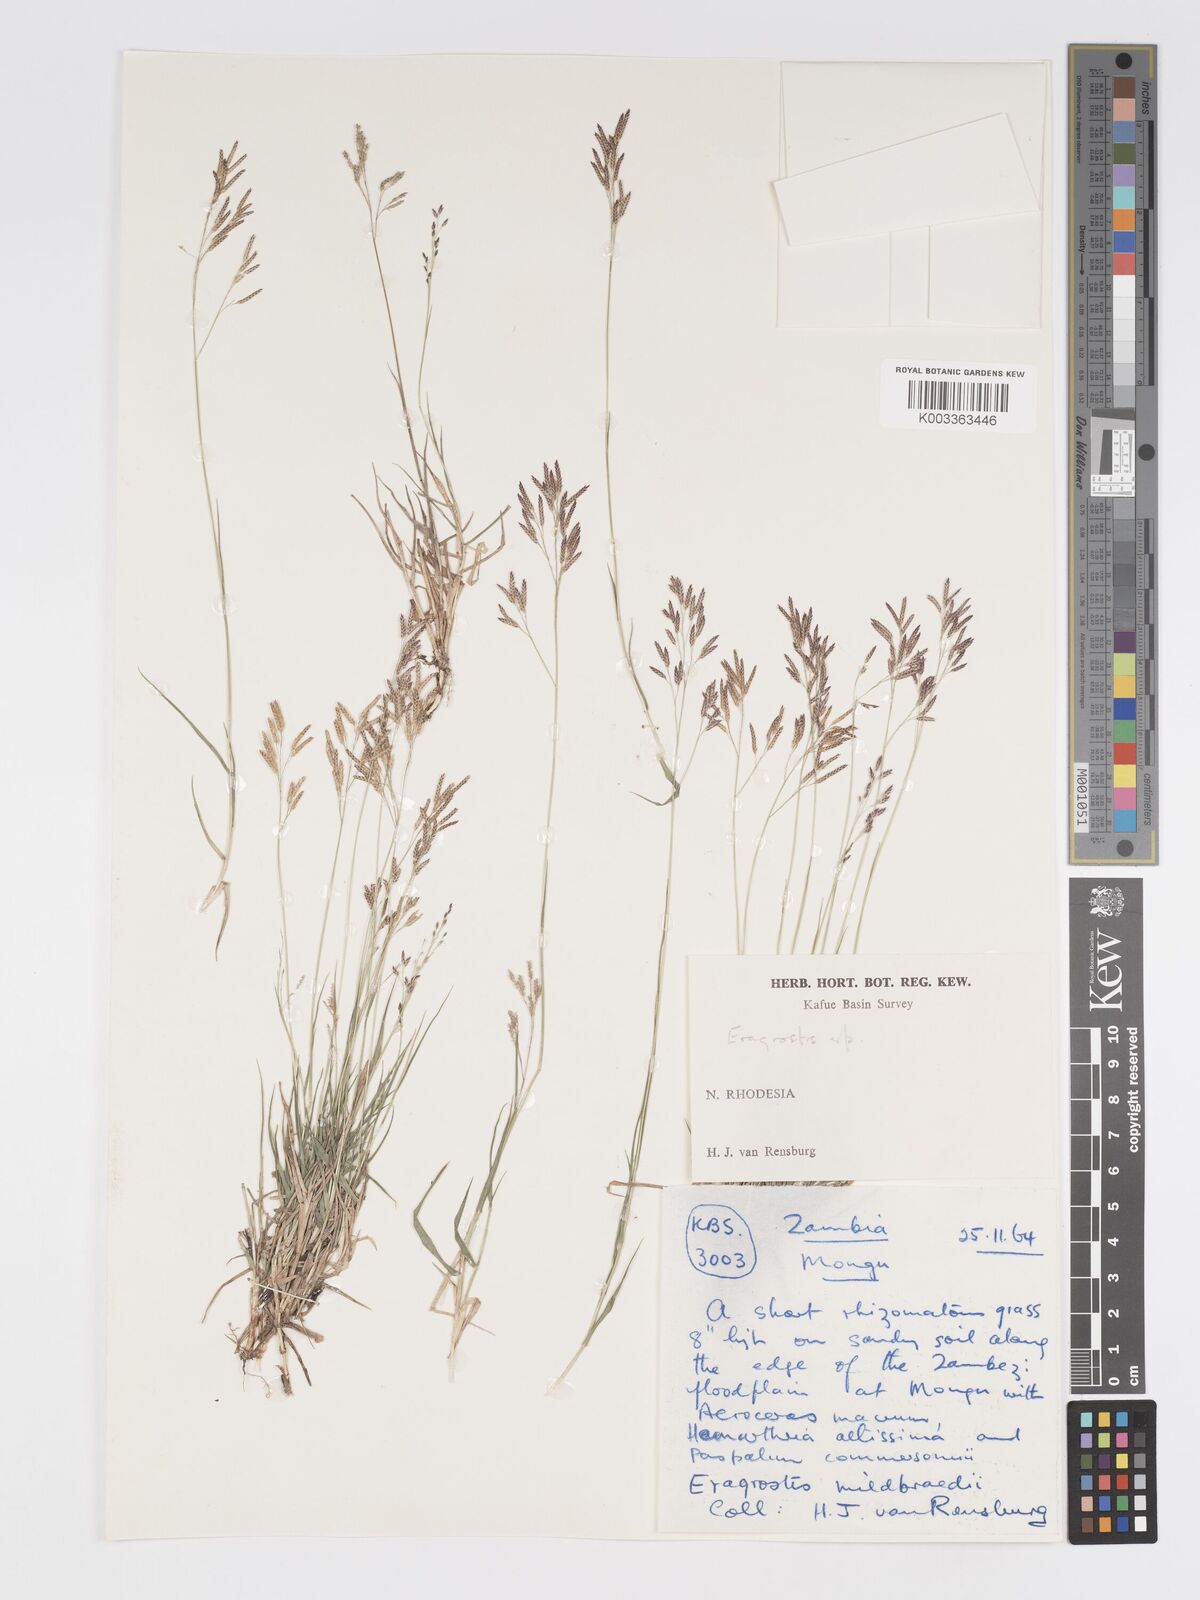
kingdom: Plantae
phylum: Tracheophyta
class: Liliopsida
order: Poales
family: Poaceae
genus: Eragrostis
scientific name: Eragrostis mildbraedii
